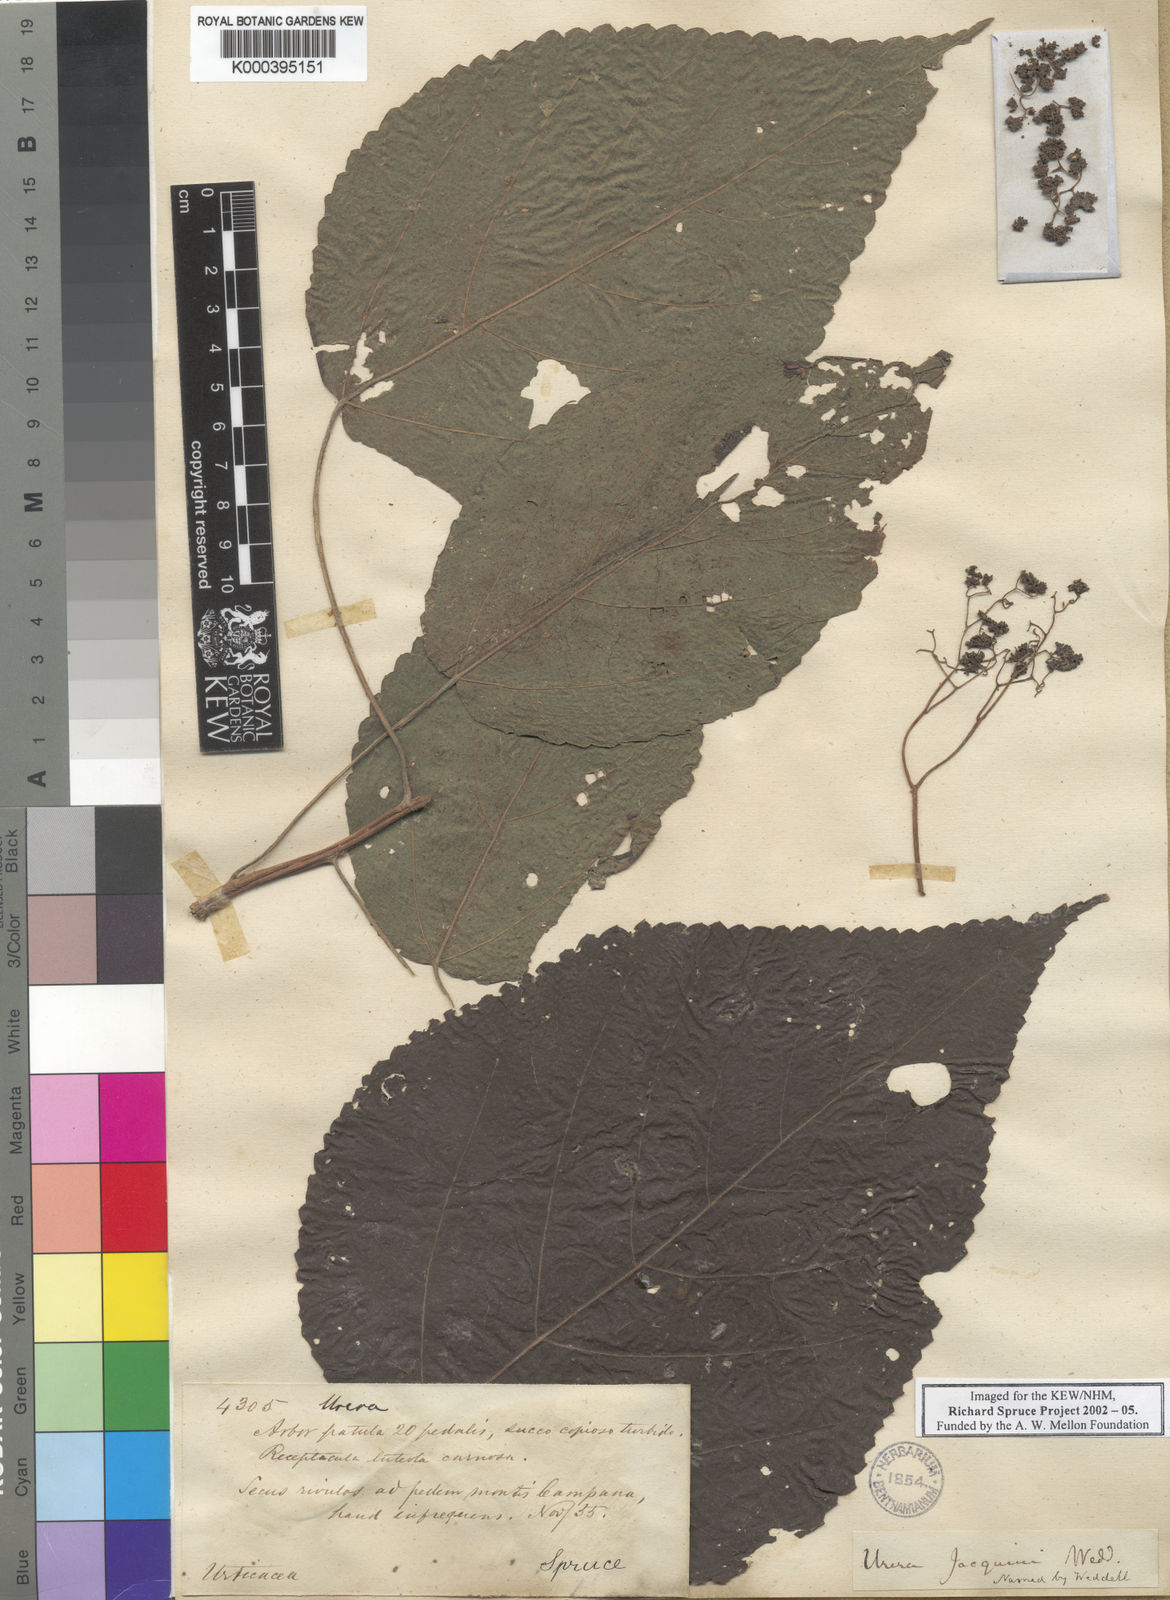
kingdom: Plantae
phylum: Tracheophyta
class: Magnoliopsida
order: Rosales
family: Urticaceae
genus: Urera
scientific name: Urera caracasana
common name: Flameberry
